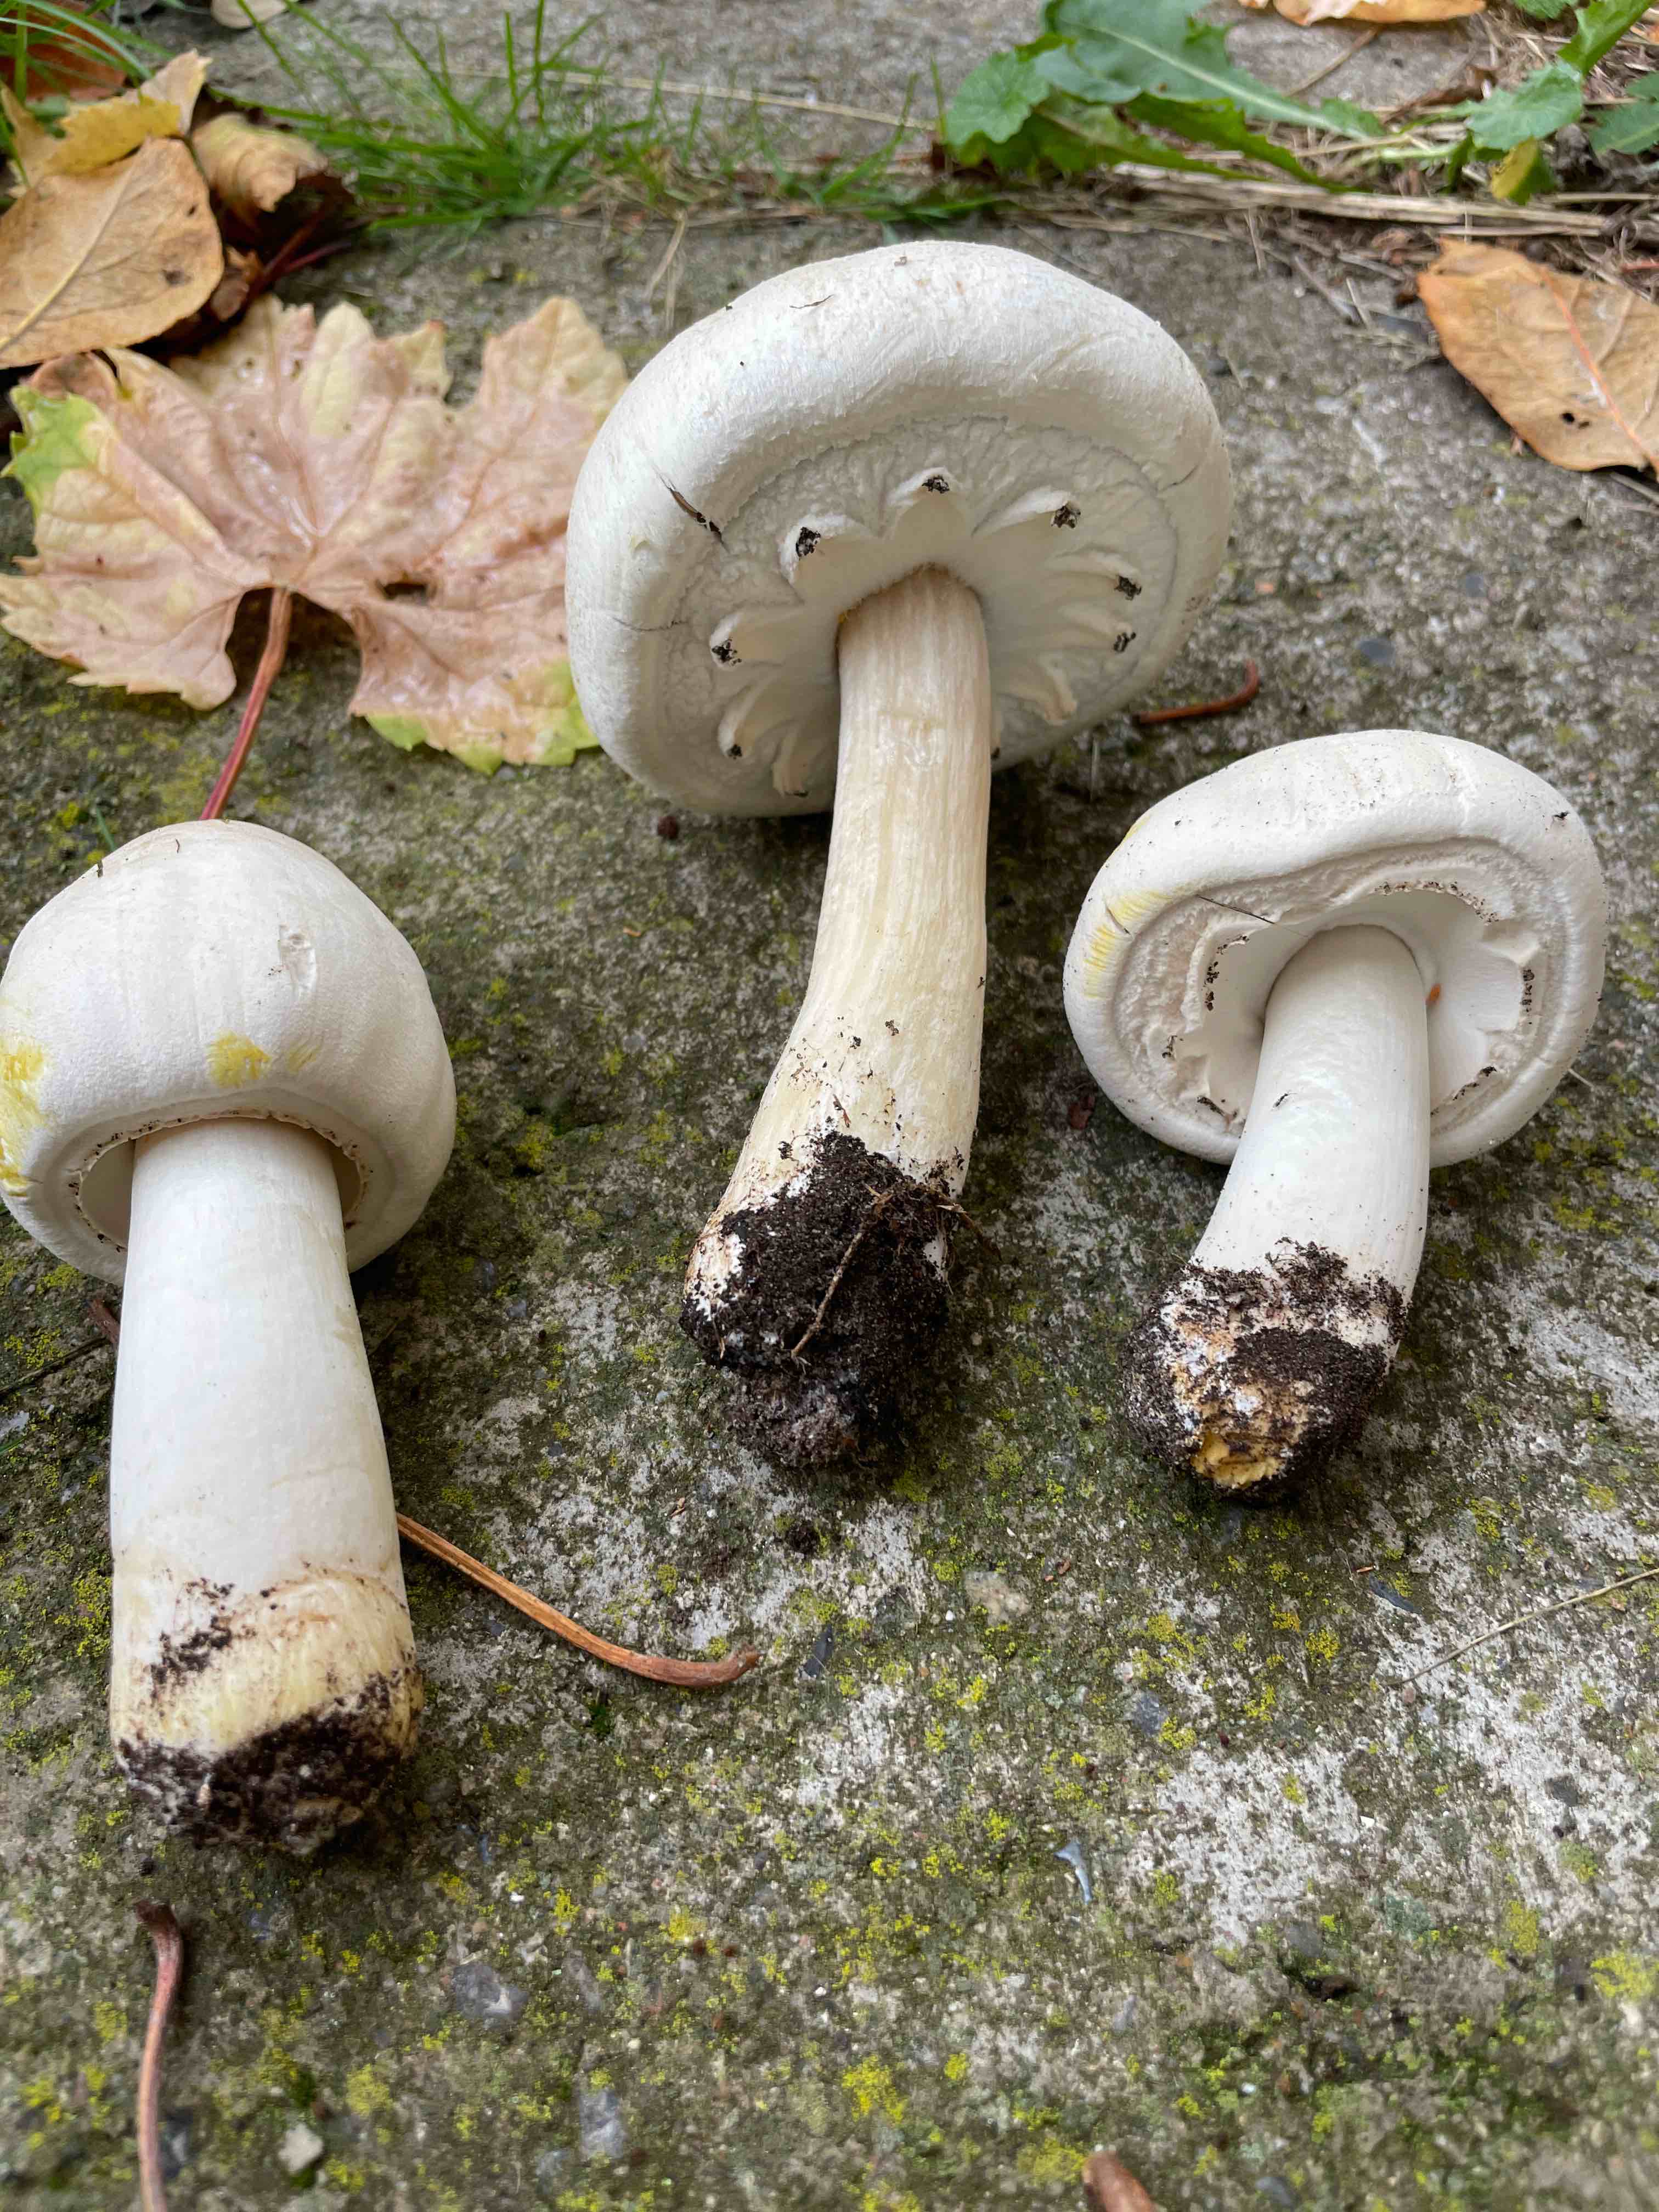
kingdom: Fungi
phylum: Basidiomycota
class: Agaricomycetes
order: Agaricales
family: Agaricaceae
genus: Agaricus
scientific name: Agaricus xanthodermus
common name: karbol-champignon
